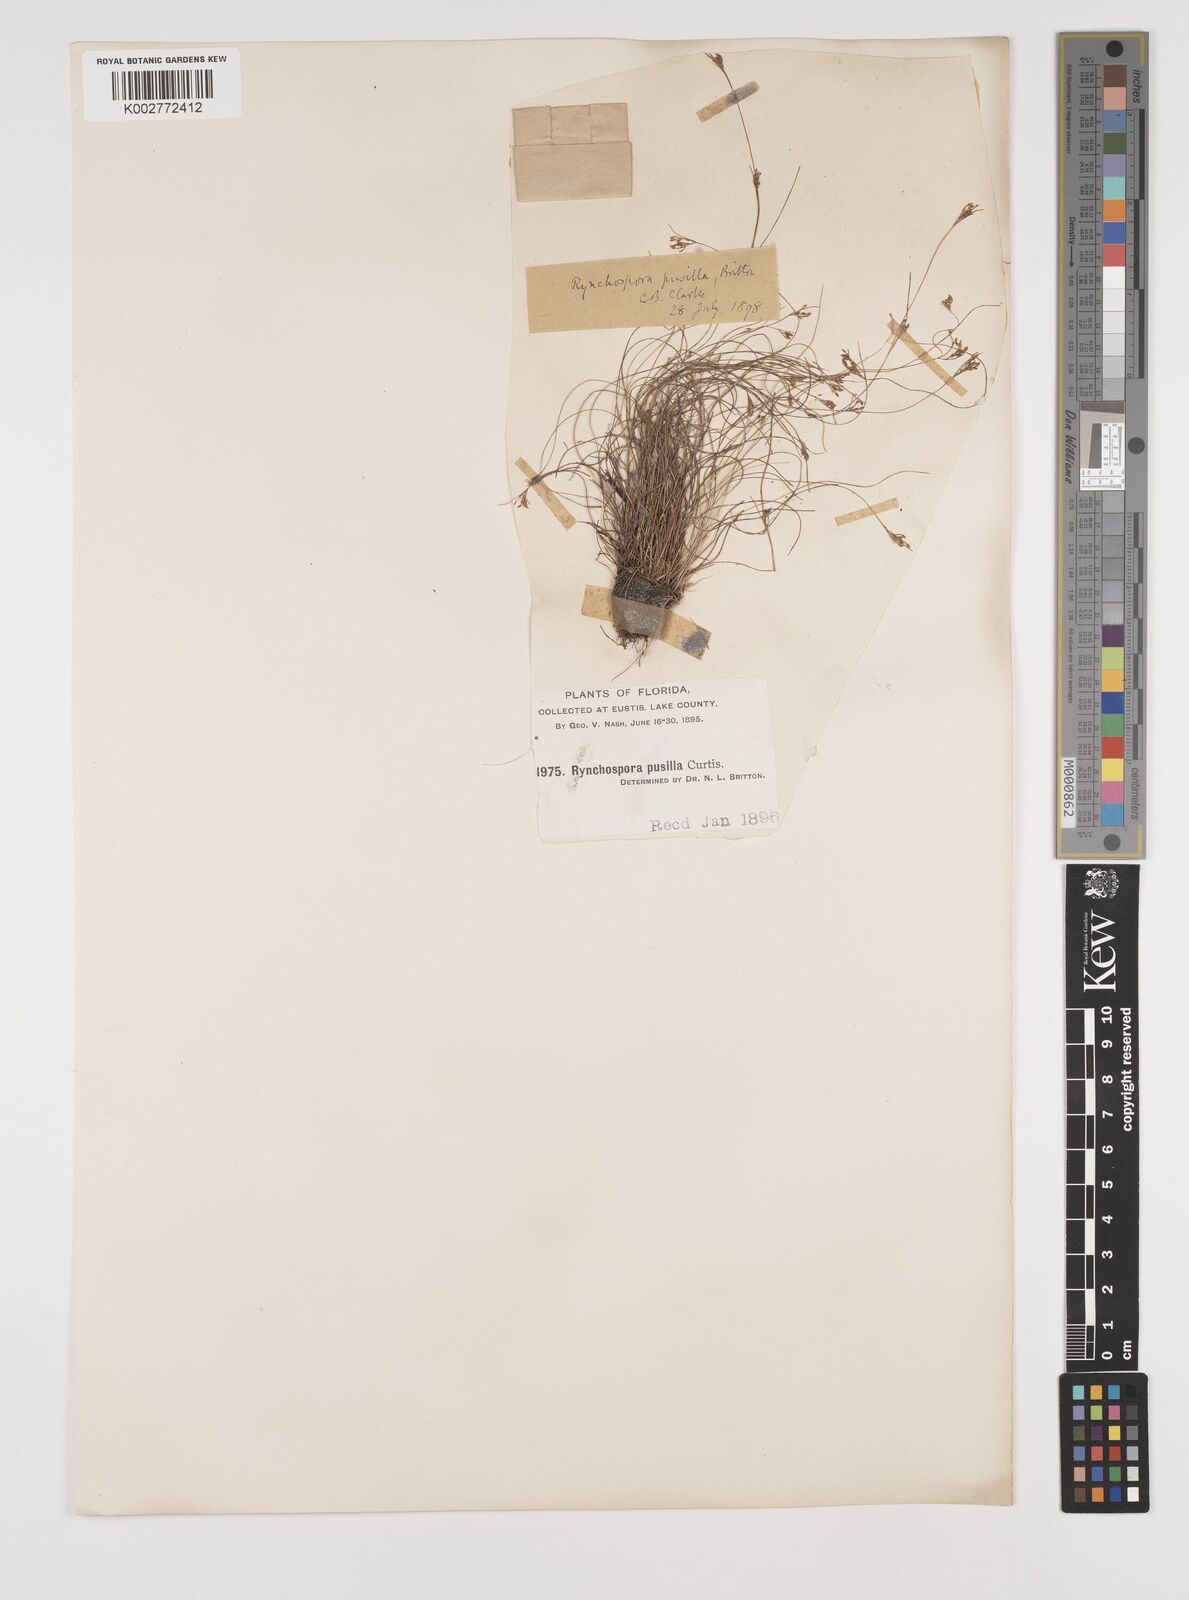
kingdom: Plantae
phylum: Tracheophyta
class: Liliopsida
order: Poales
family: Cyperaceae
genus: Rhynchospora
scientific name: Rhynchospora intermixta
